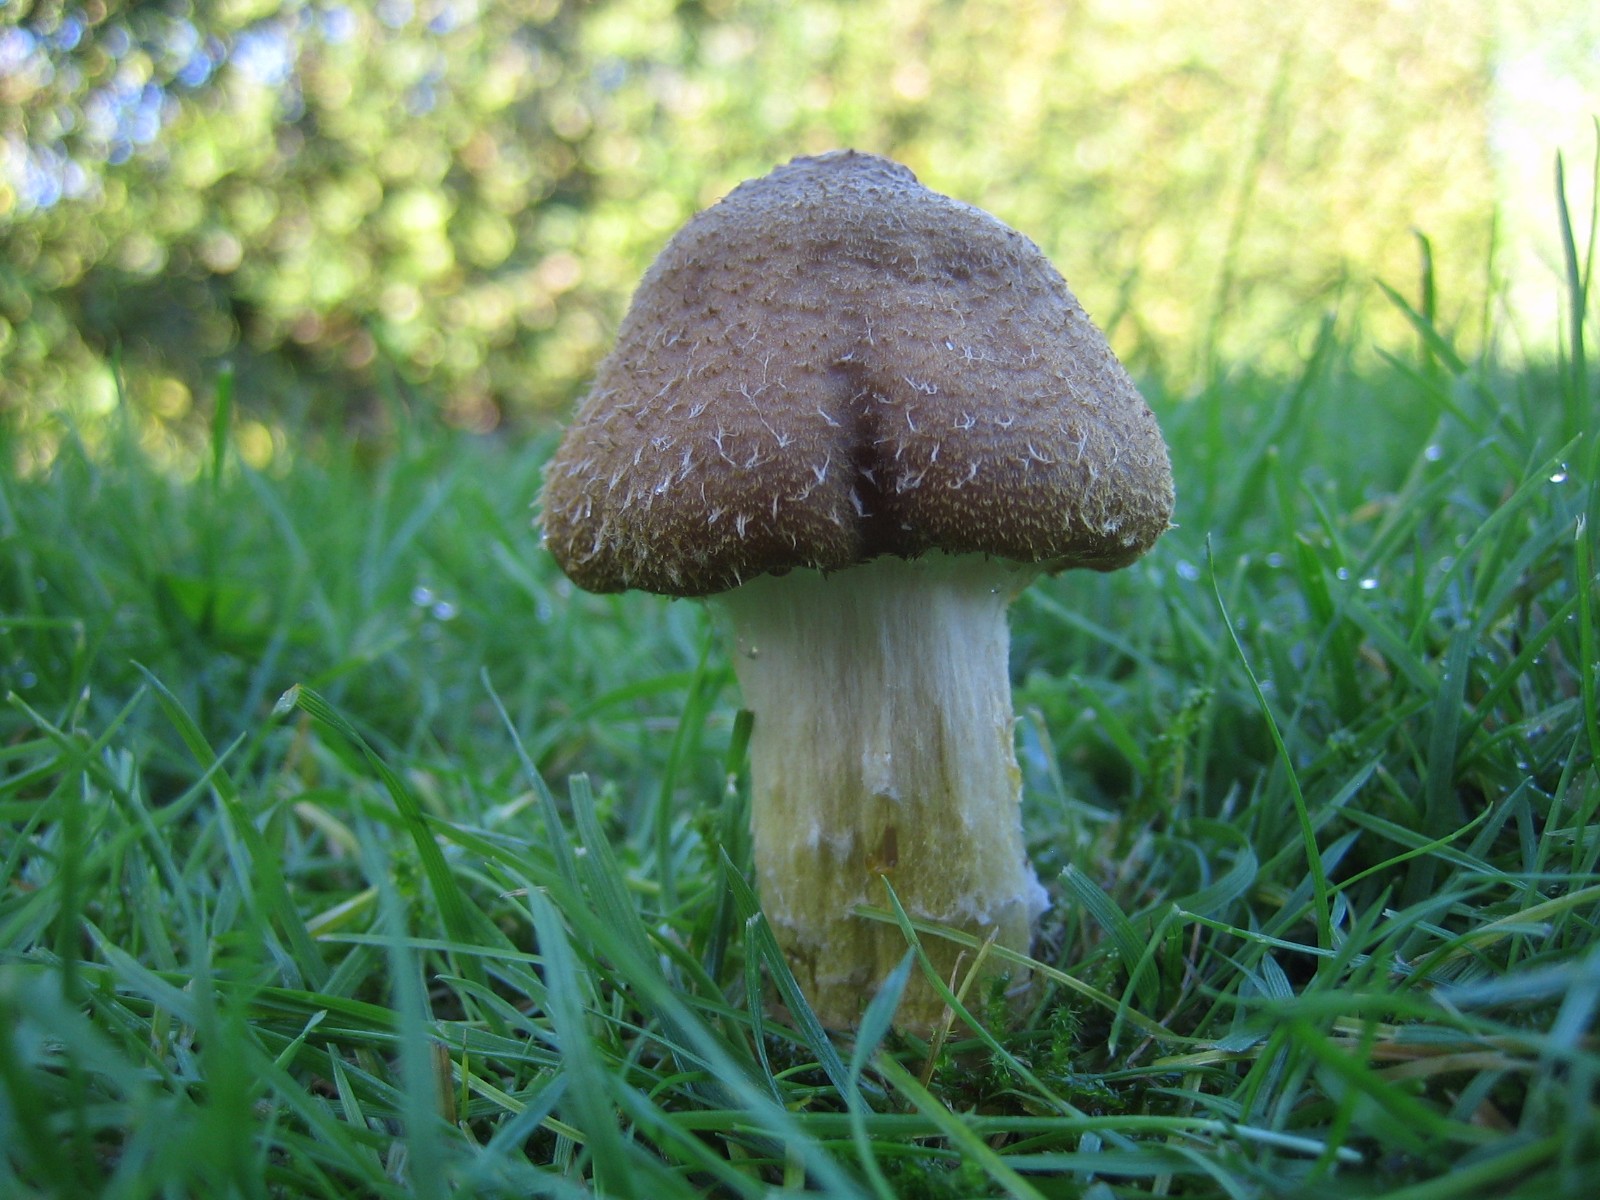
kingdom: Fungi
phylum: Basidiomycota
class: Agaricomycetes
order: Agaricales
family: Physalacriaceae
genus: Armillaria
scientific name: Armillaria lutea
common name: køllestokket honningsvamp
